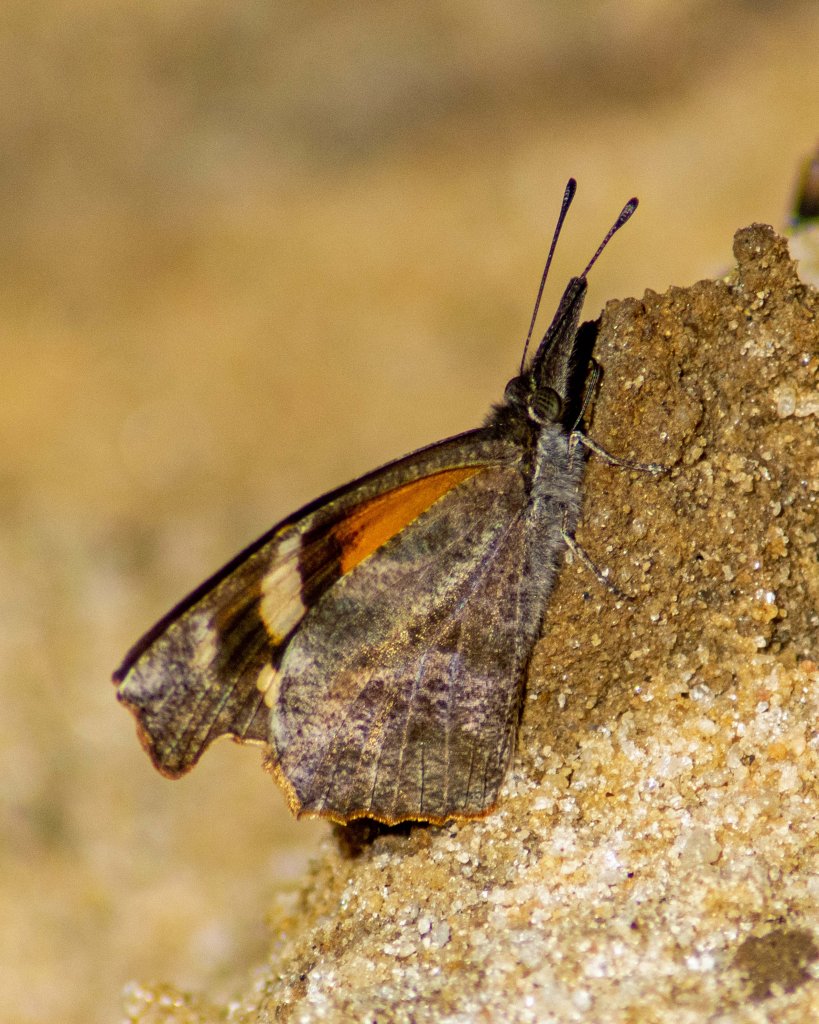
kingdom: Animalia
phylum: Arthropoda
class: Insecta
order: Lepidoptera
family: Nymphalidae
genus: Libytheana
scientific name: Libytheana carinenta
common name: American Snout
